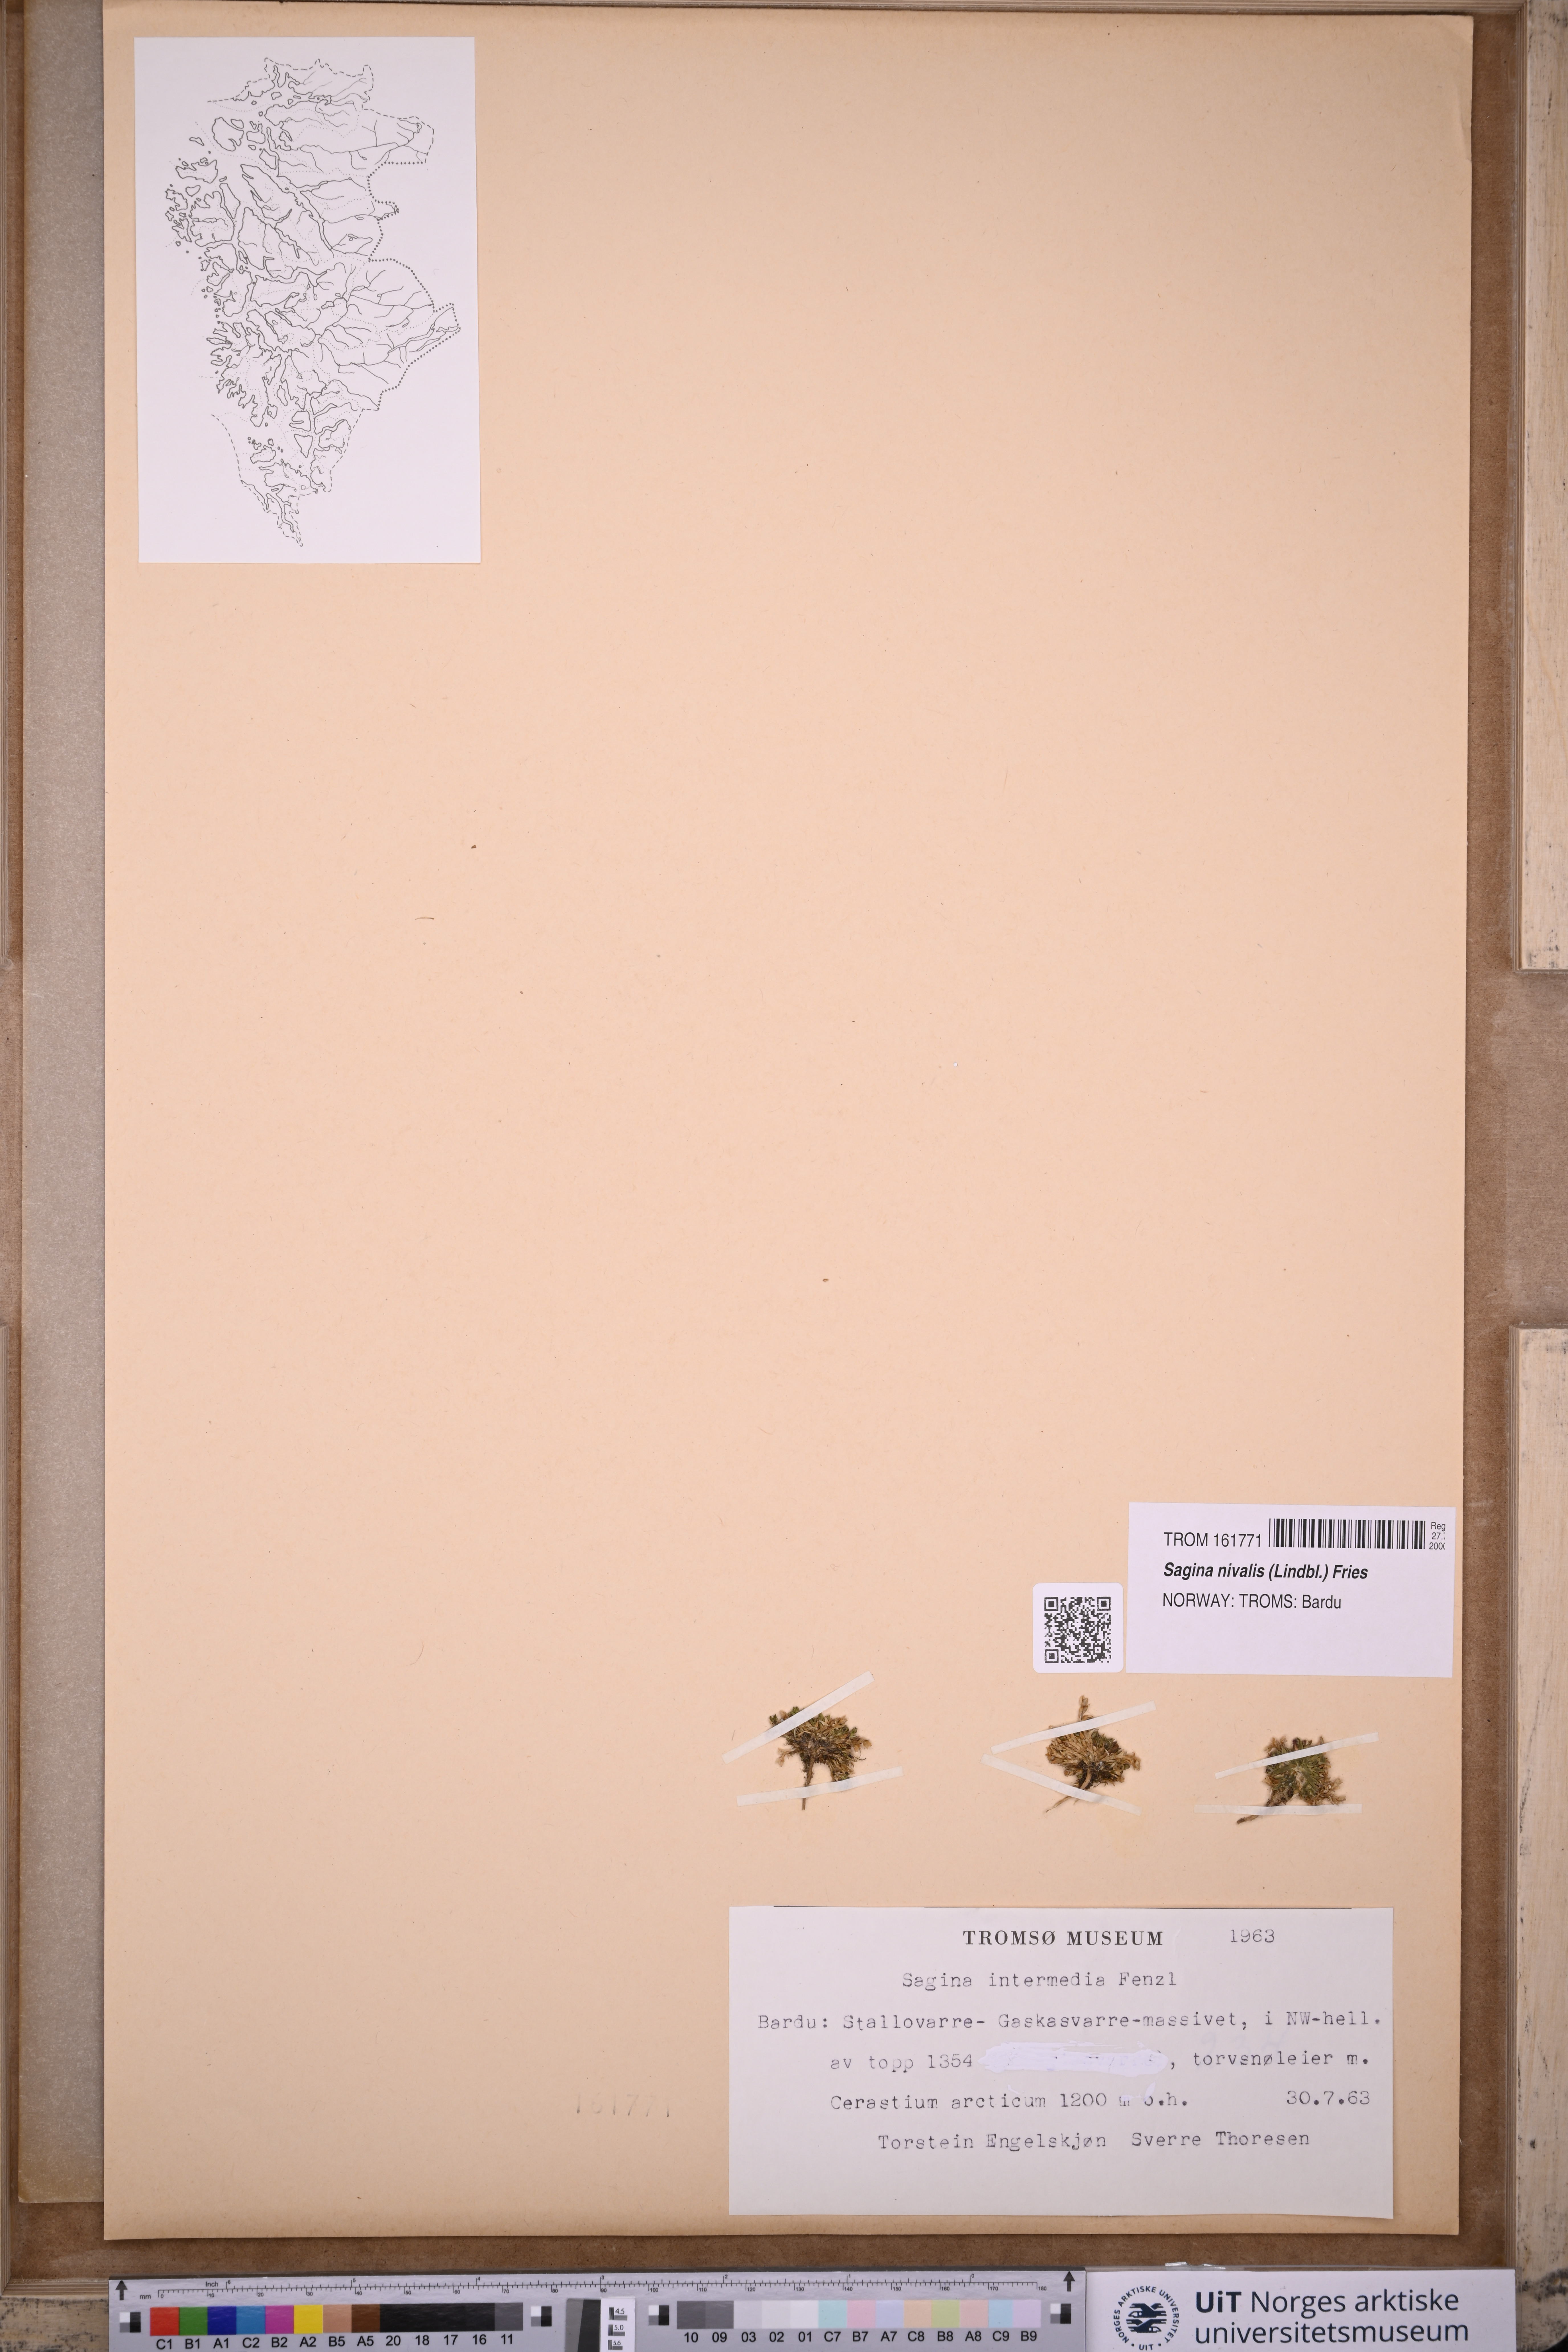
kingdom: Plantae
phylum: Tracheophyta
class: Magnoliopsida
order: Caryophyllales
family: Caryophyllaceae
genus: Sagina
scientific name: Sagina nivalis
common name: Snow pearlwort
